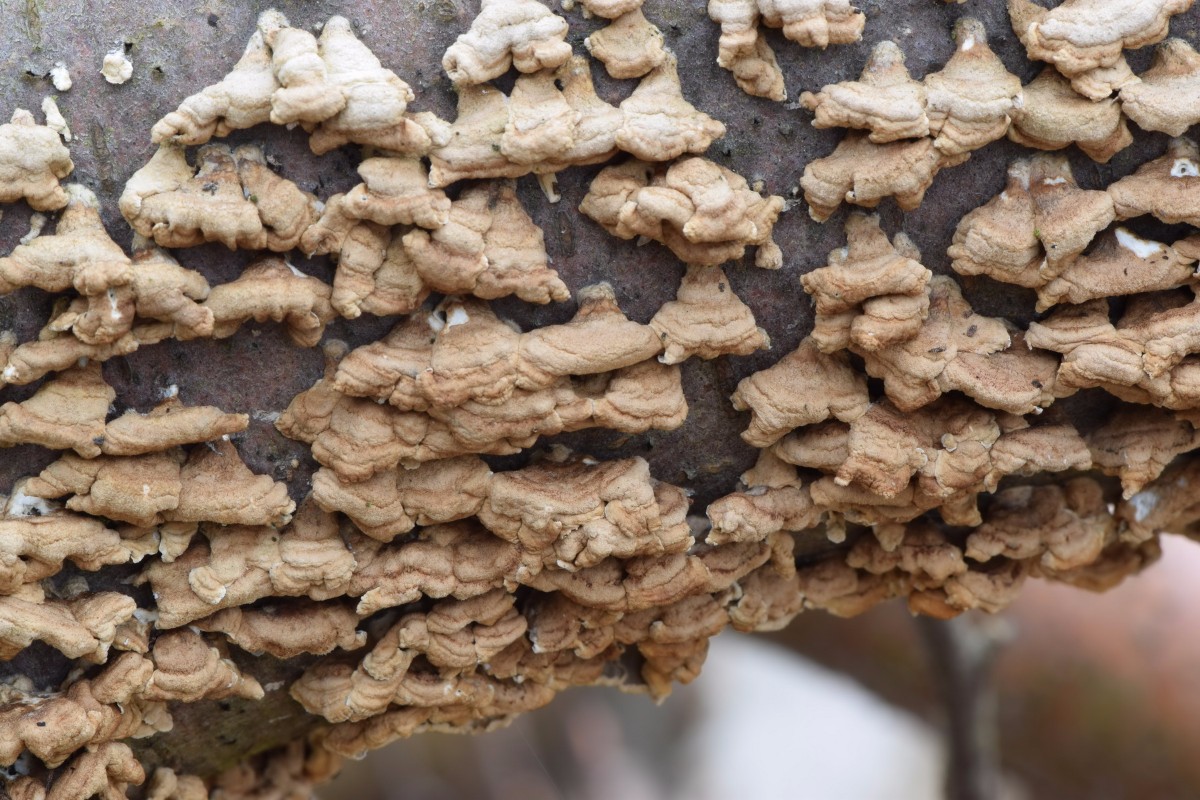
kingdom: Fungi
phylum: Basidiomycota
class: Agaricomycetes
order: Amylocorticiales
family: Amylocorticiaceae
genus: Plicaturopsis
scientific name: Plicaturopsis crispa
